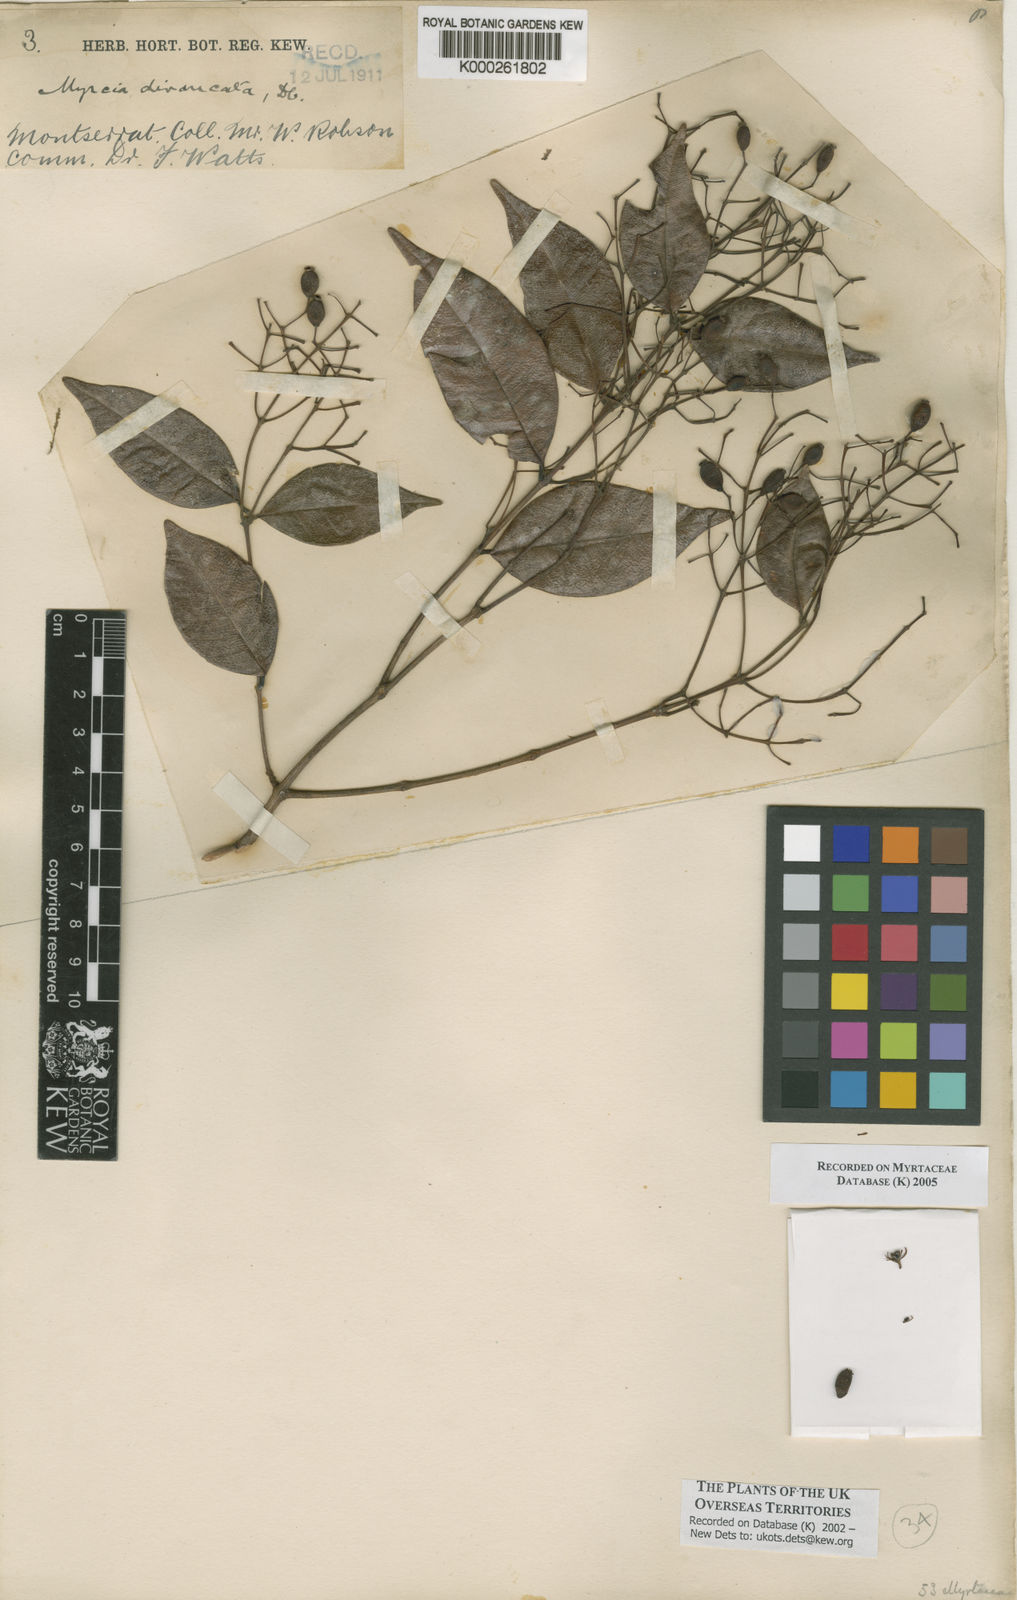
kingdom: Plantae
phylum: Tracheophyta
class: Magnoliopsida
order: Myrtales
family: Myrtaceae
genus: Myrcia
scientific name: Myrcia splendens
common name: Surinam cherry
